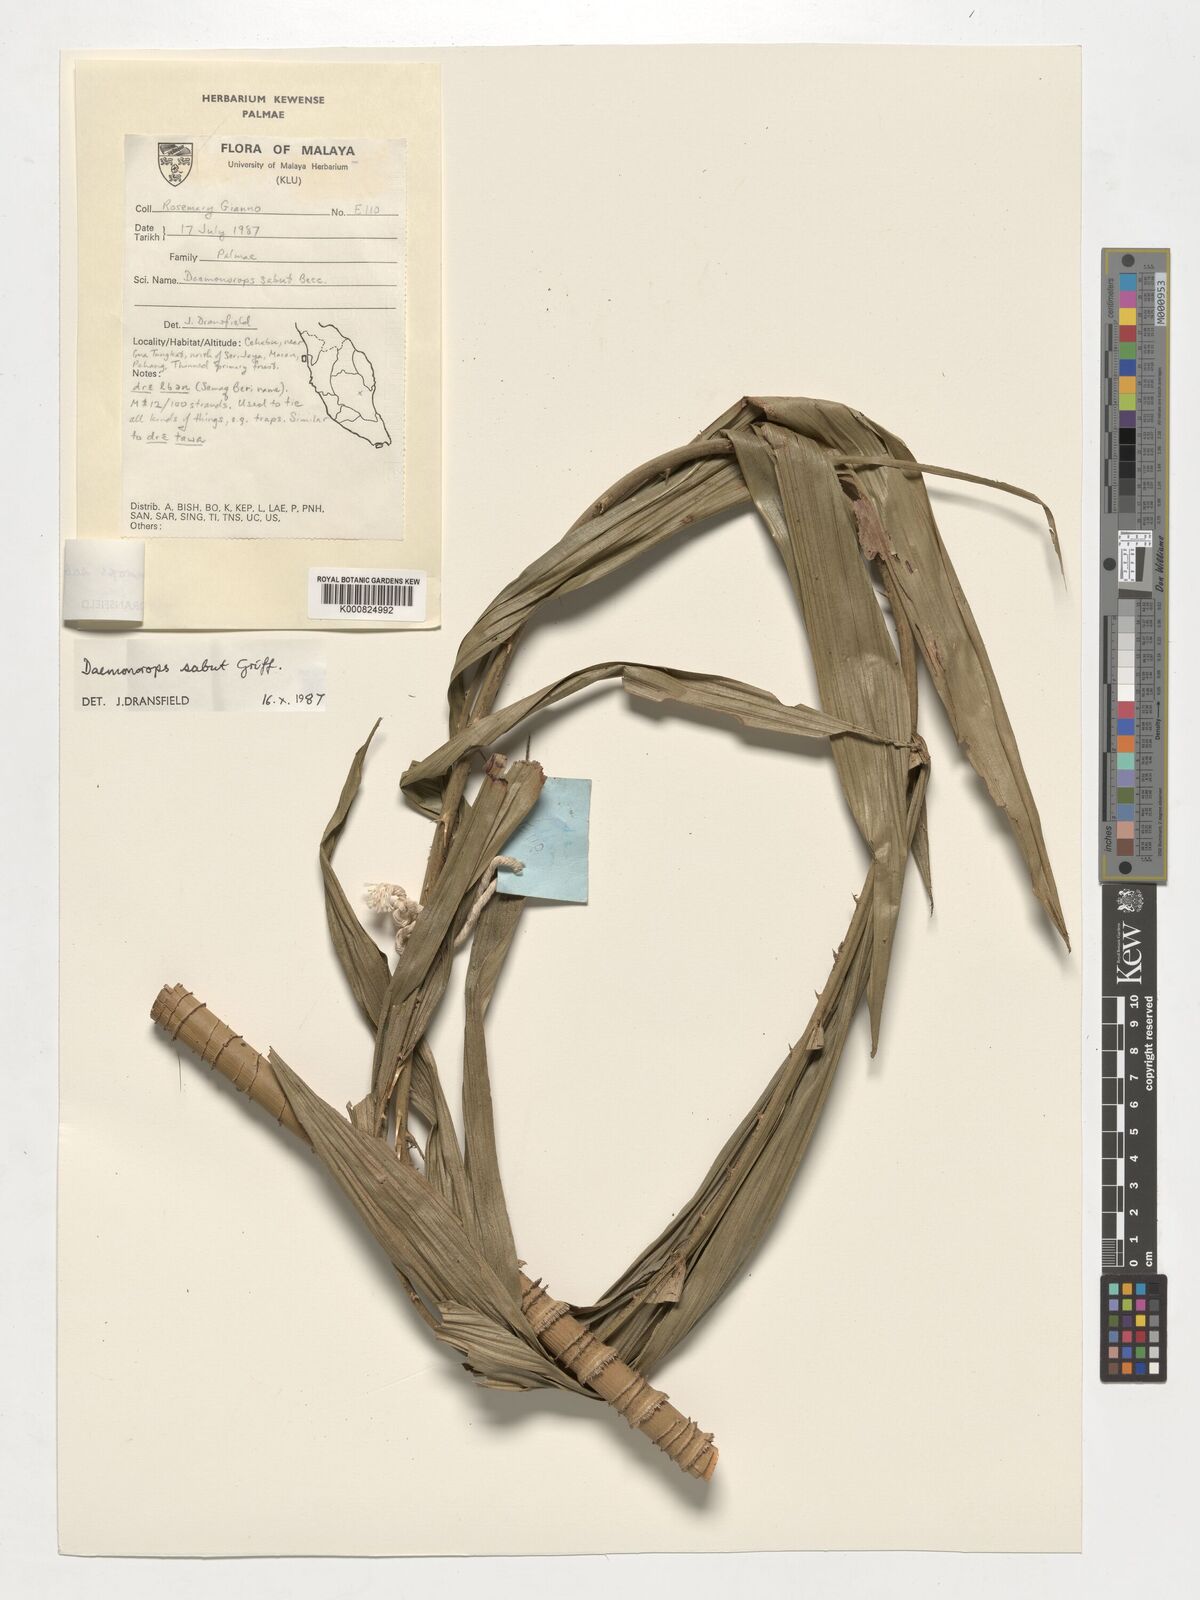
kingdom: Plantae
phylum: Tracheophyta
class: Liliopsida
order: Arecales
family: Arecaceae
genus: Calamus
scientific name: Calamus crinitus
